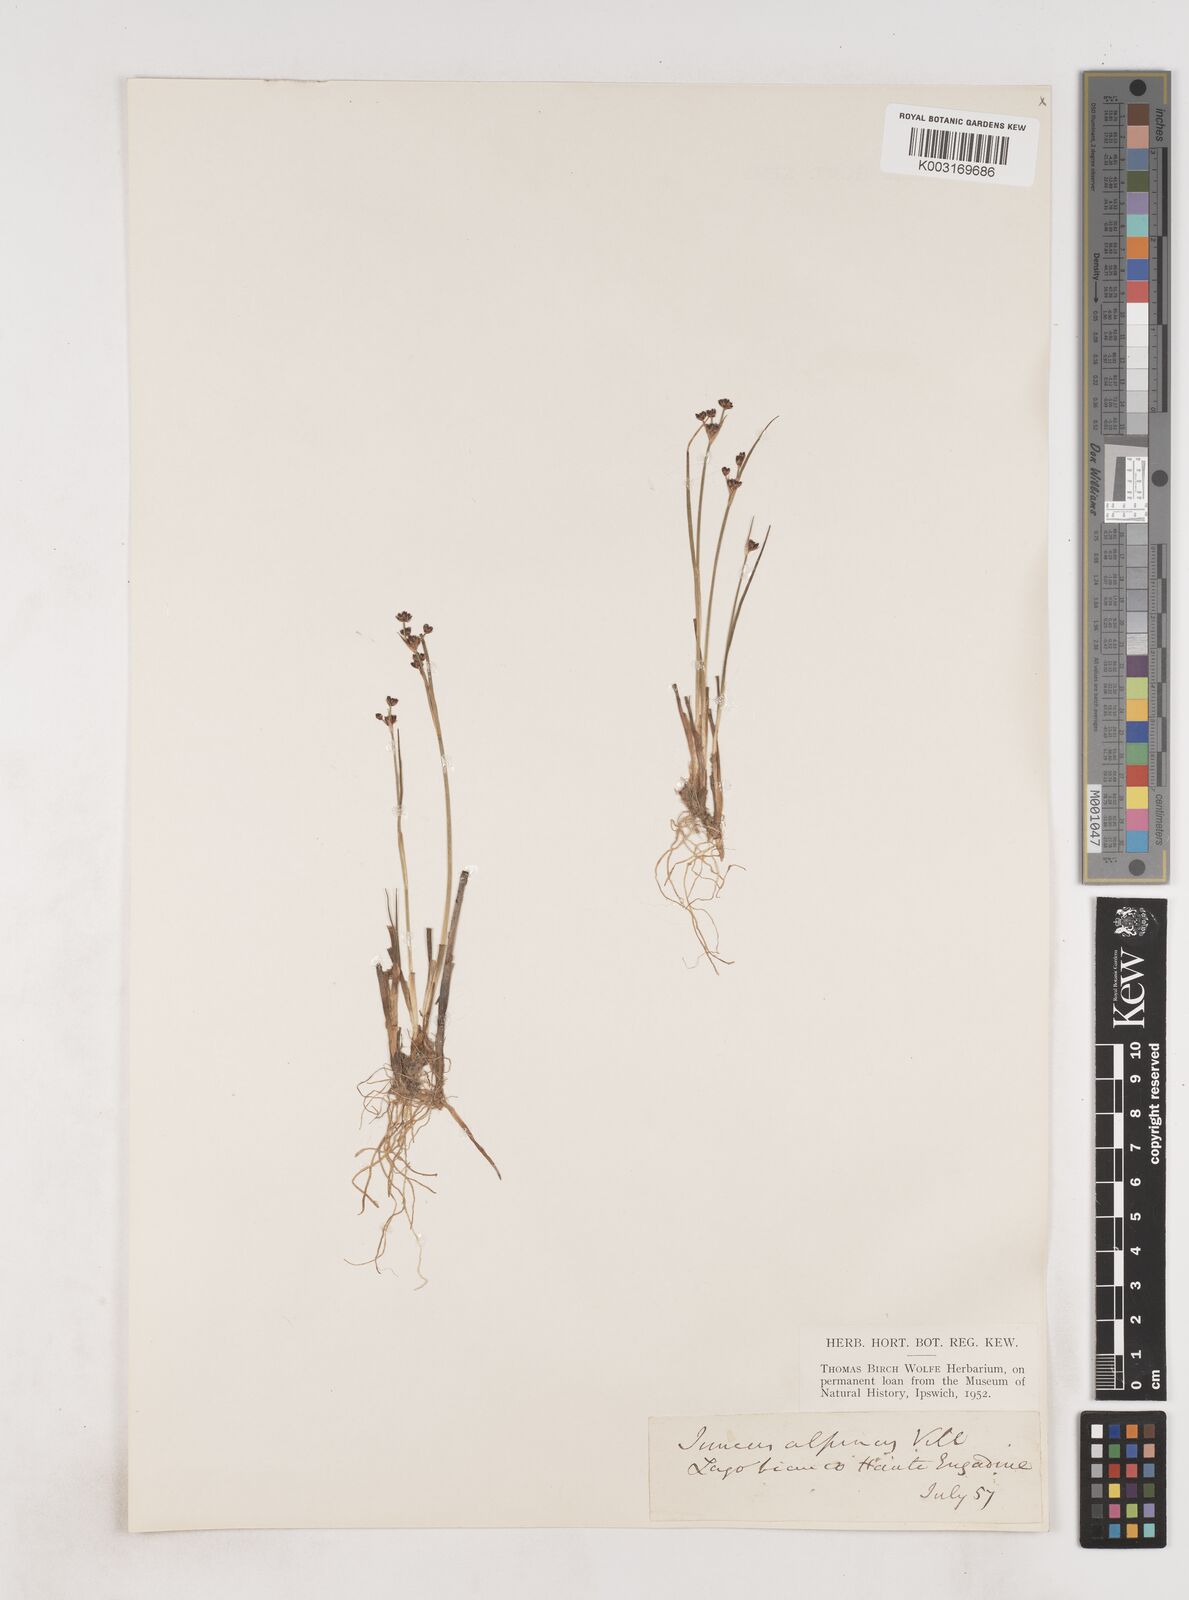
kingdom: Plantae
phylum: Tracheophyta
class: Liliopsida
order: Poales
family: Juncaceae
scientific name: Juncaceae
